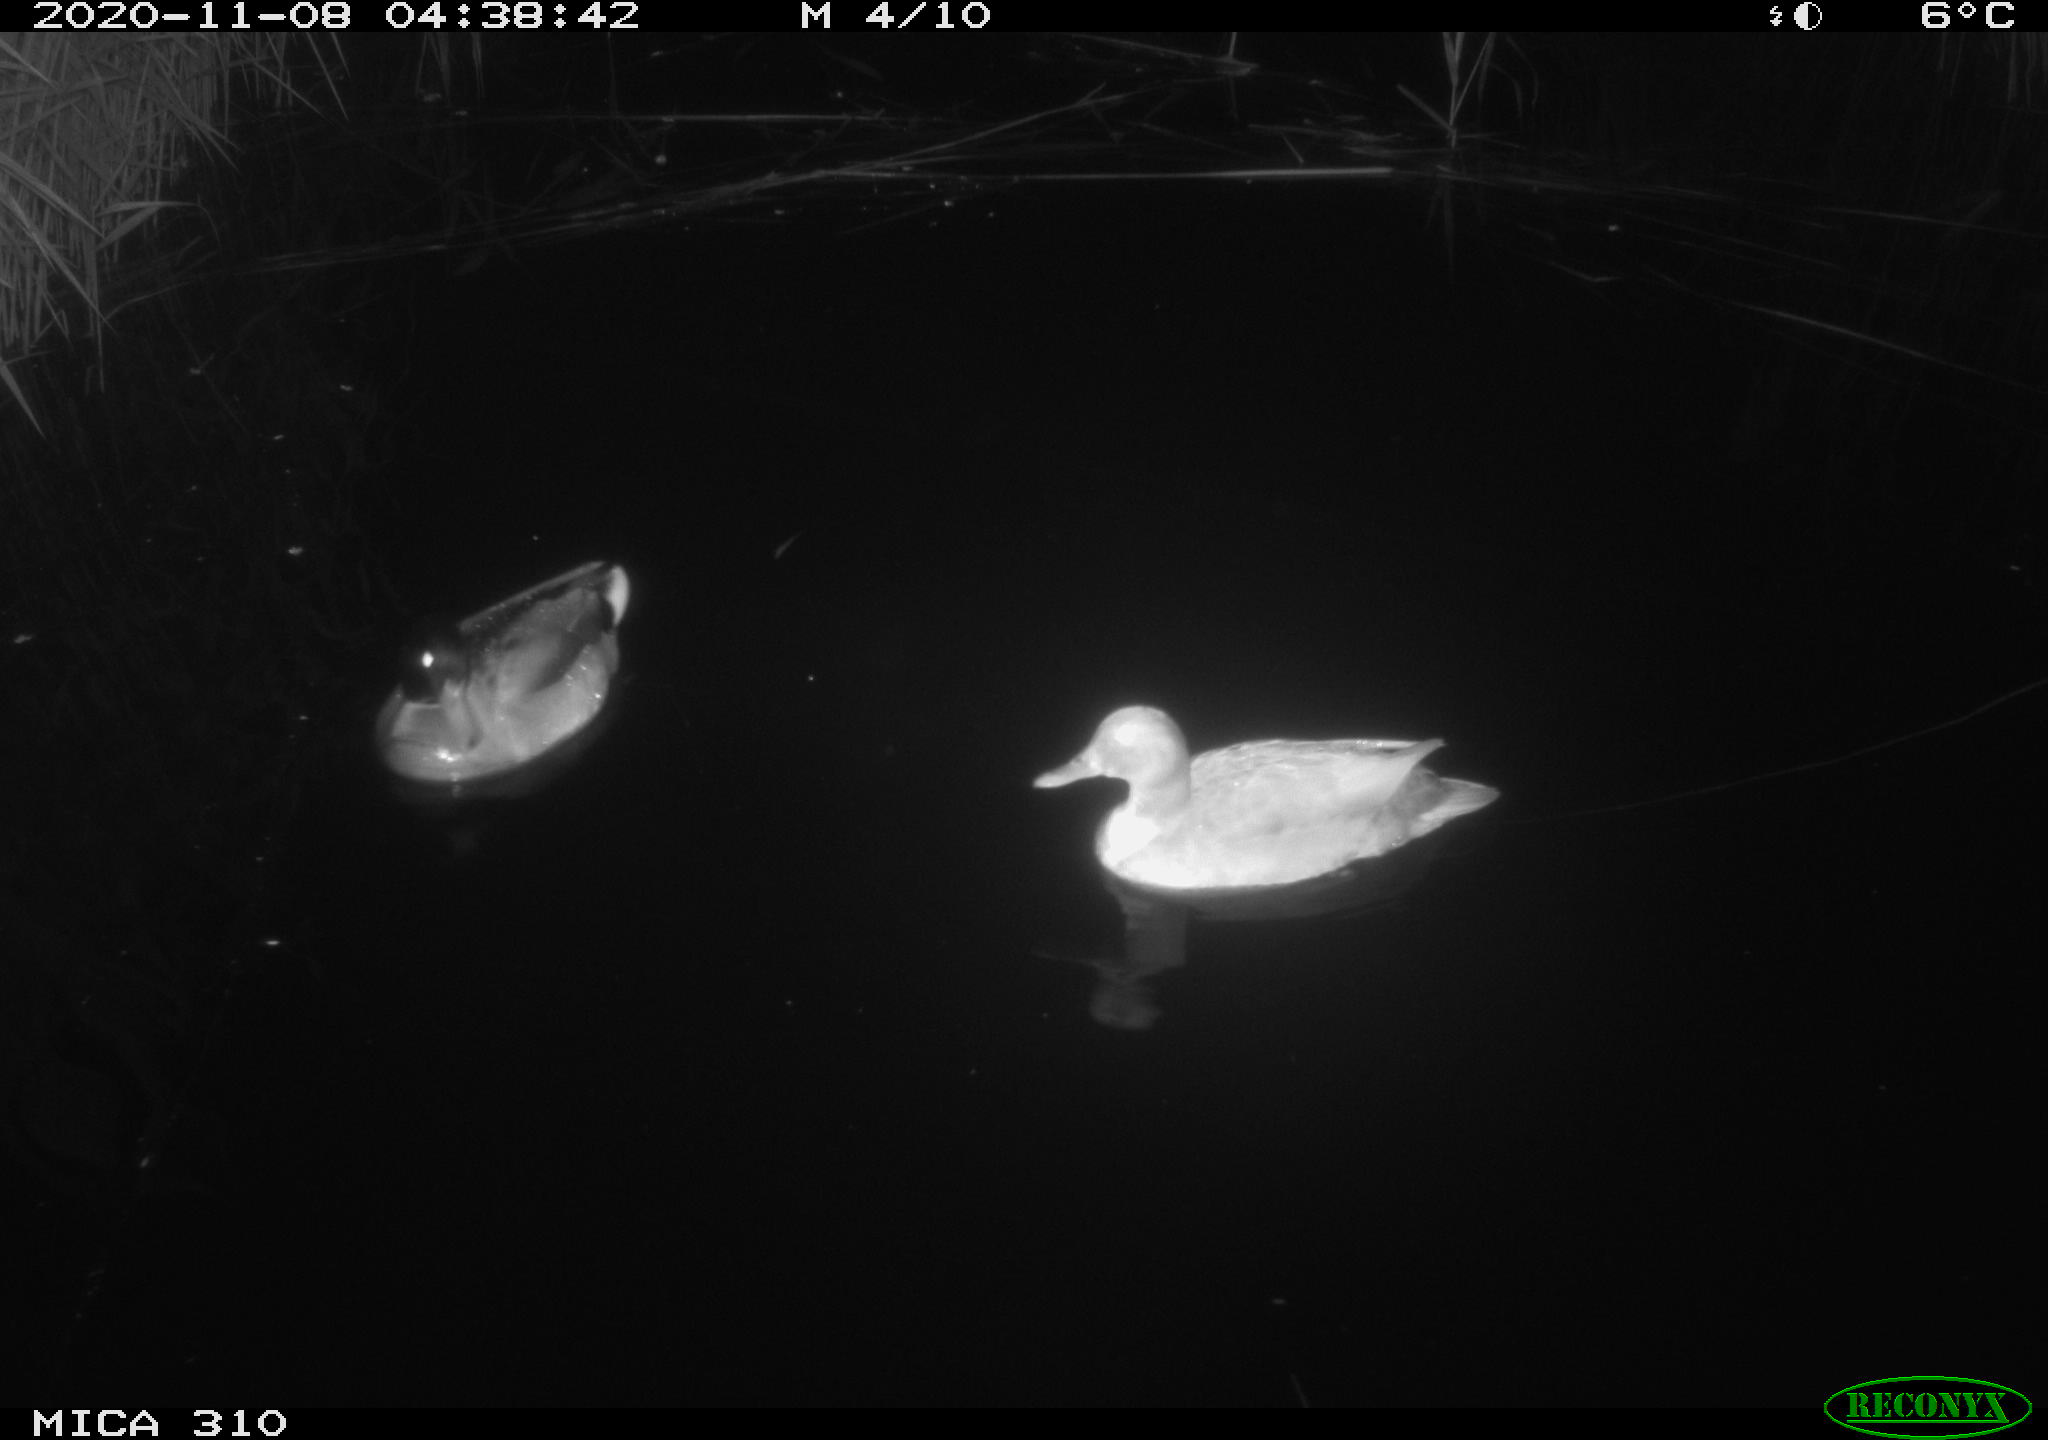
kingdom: Animalia
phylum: Chordata
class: Aves
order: Gruiformes
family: Rallidae
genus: Gallinula
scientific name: Gallinula chloropus
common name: Common moorhen
